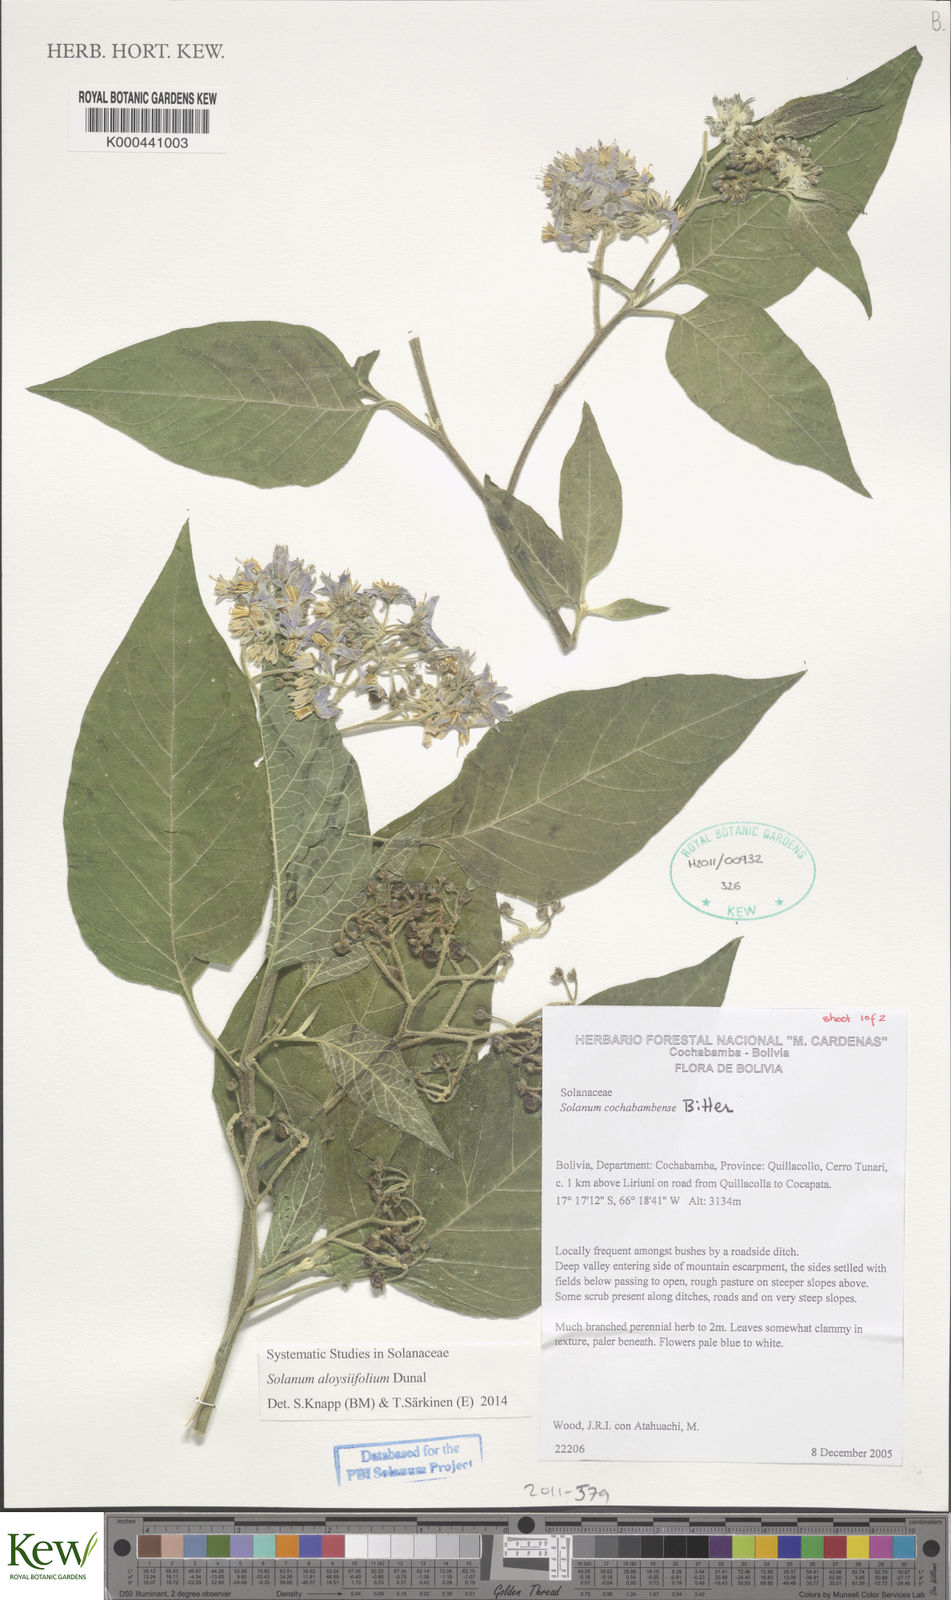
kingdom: Plantae
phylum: Tracheophyta
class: Magnoliopsida
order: Solanales
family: Solanaceae
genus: Solanum
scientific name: Solanum probolospermum
